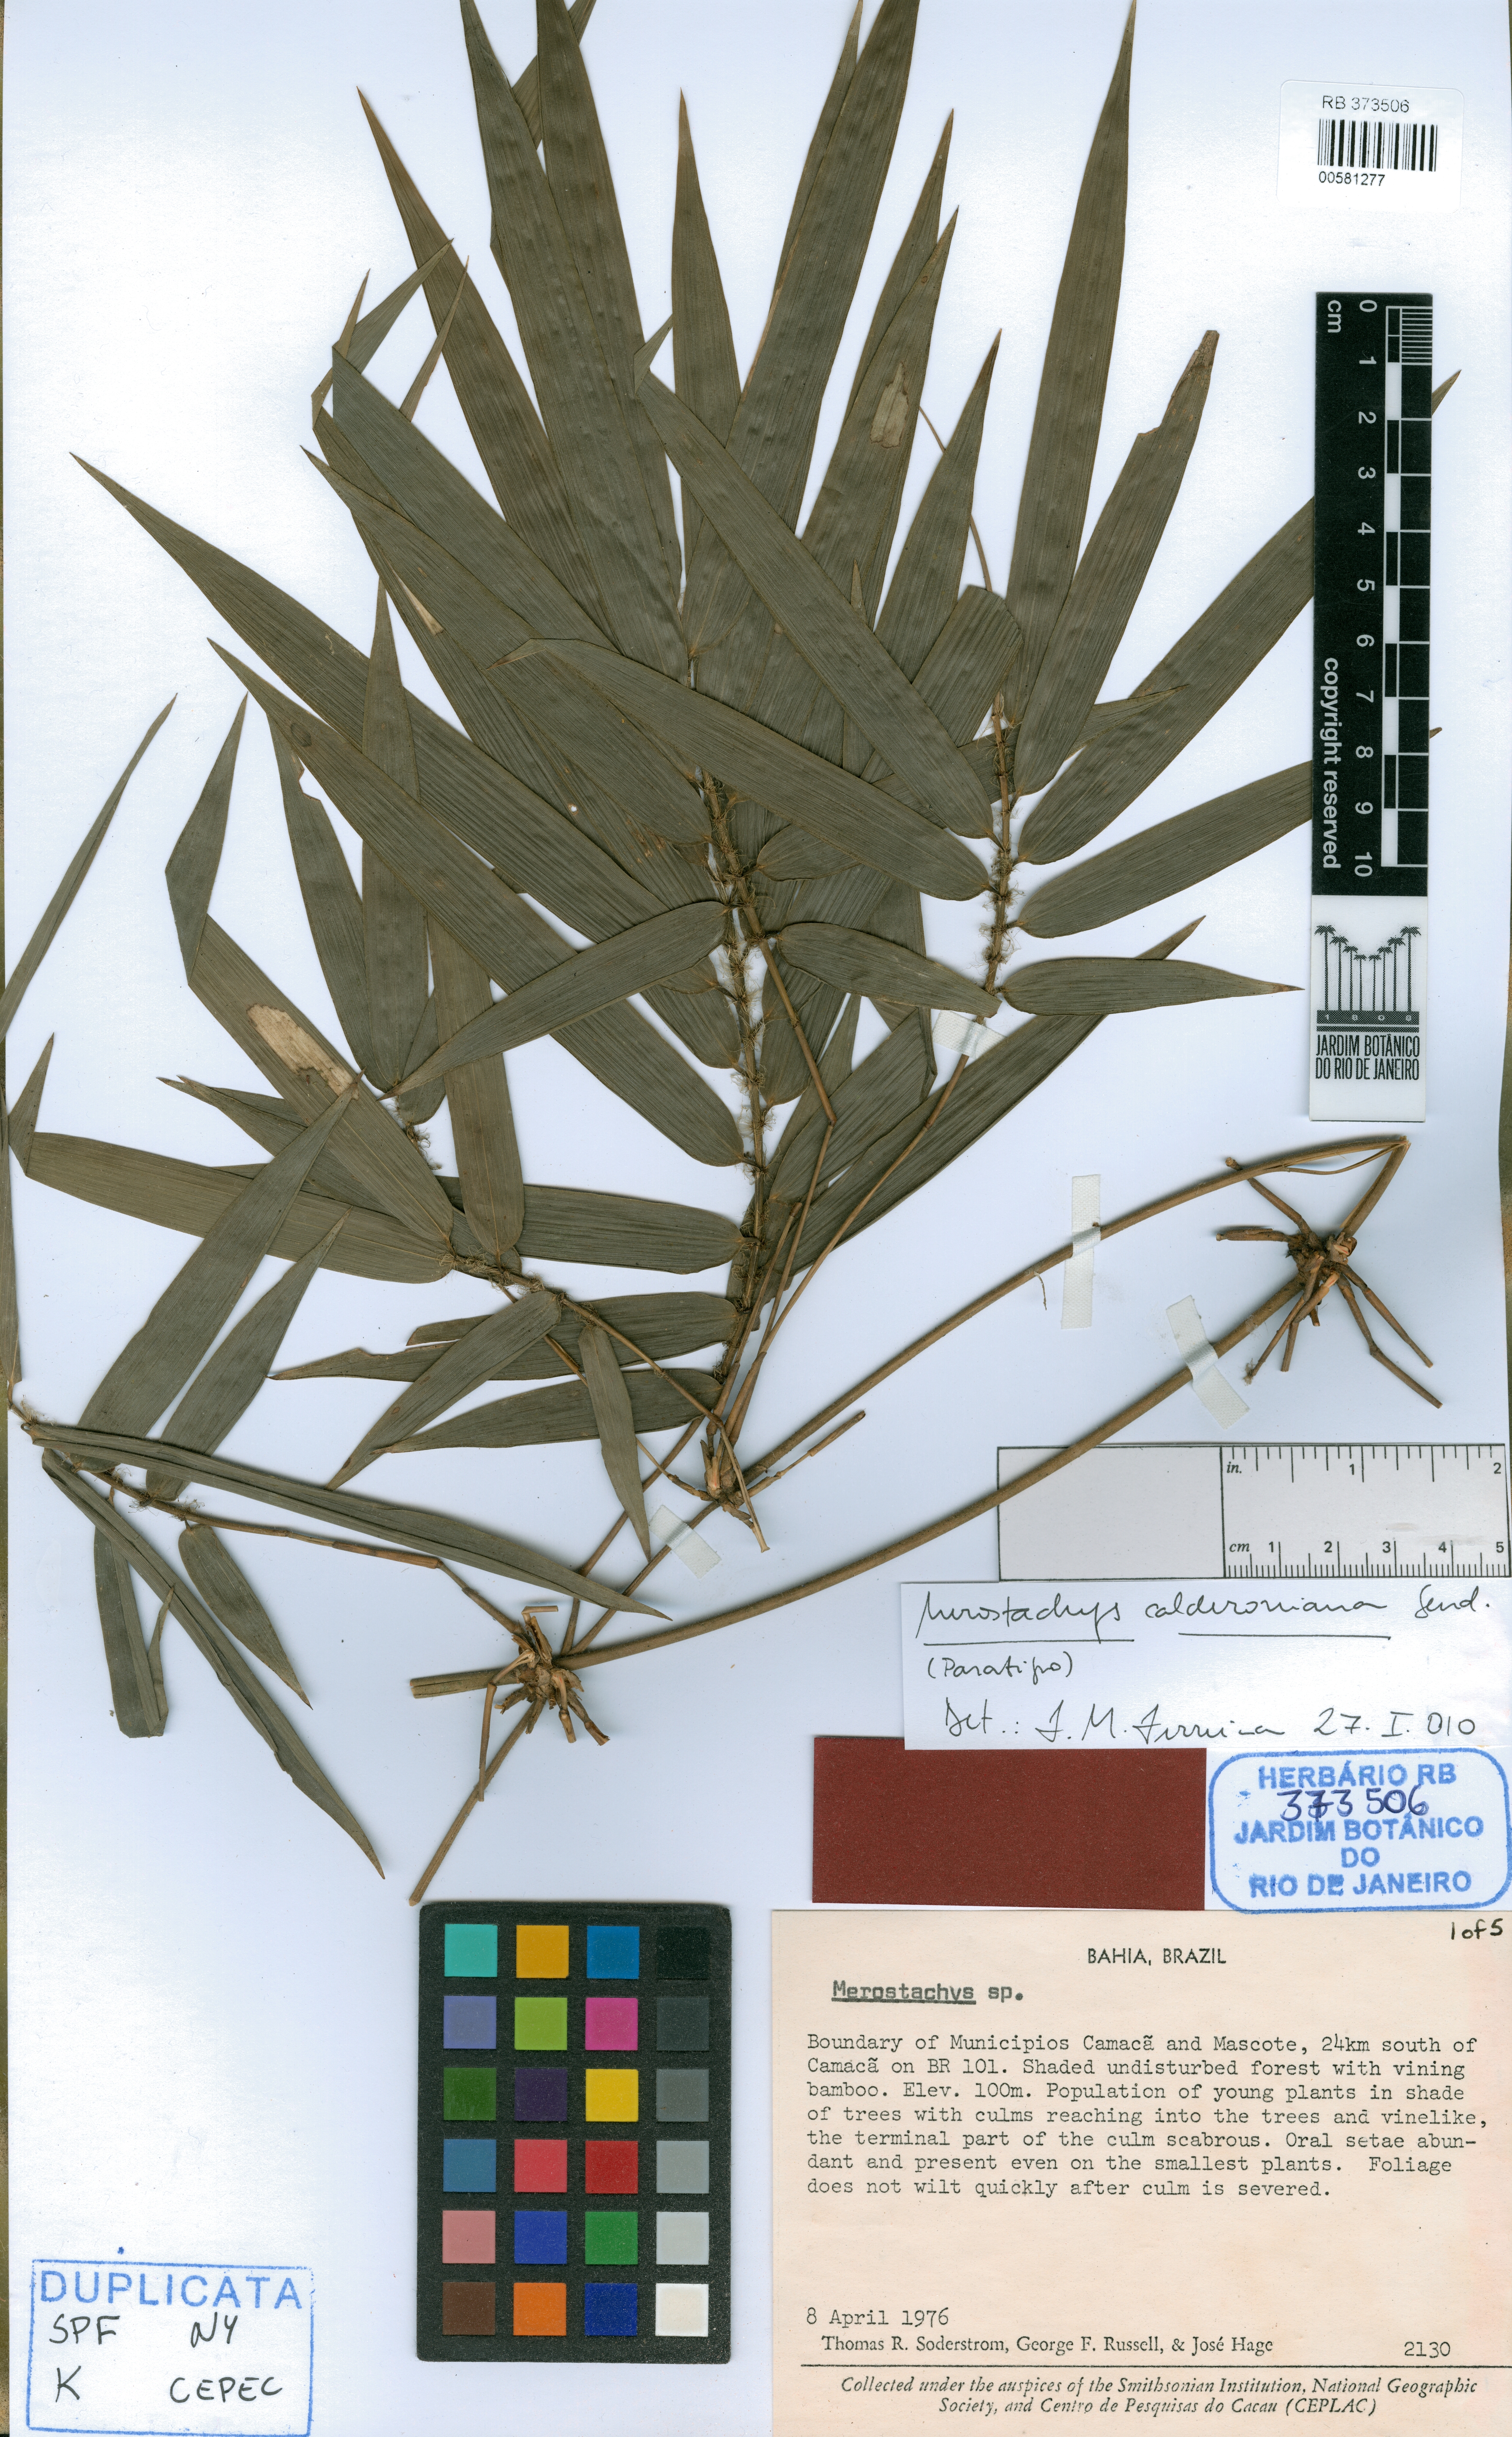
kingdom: Plantae
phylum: Tracheophyta
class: Liliopsida
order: Poales
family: Poaceae
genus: Merostachys
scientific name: Merostachys calderoniana
